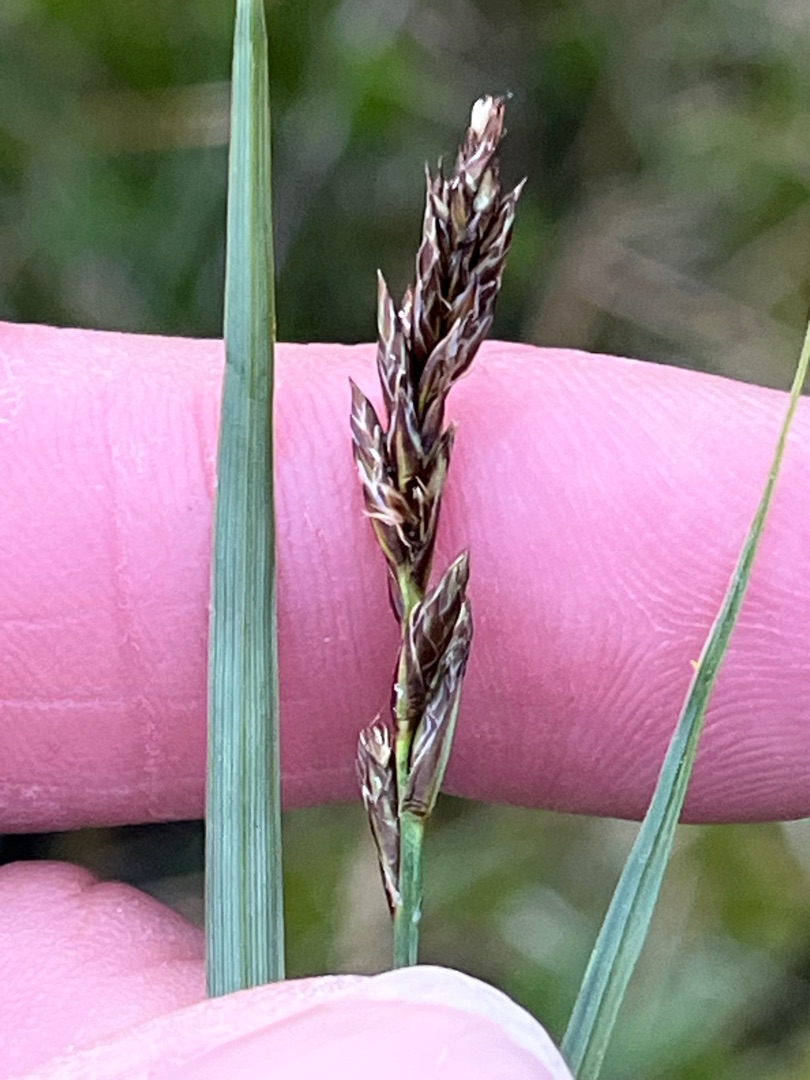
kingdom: Plantae
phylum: Tracheophyta
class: Liliopsida
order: Poales
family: Cyperaceae
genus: Carex
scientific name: Carex disticha
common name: Toradet star
